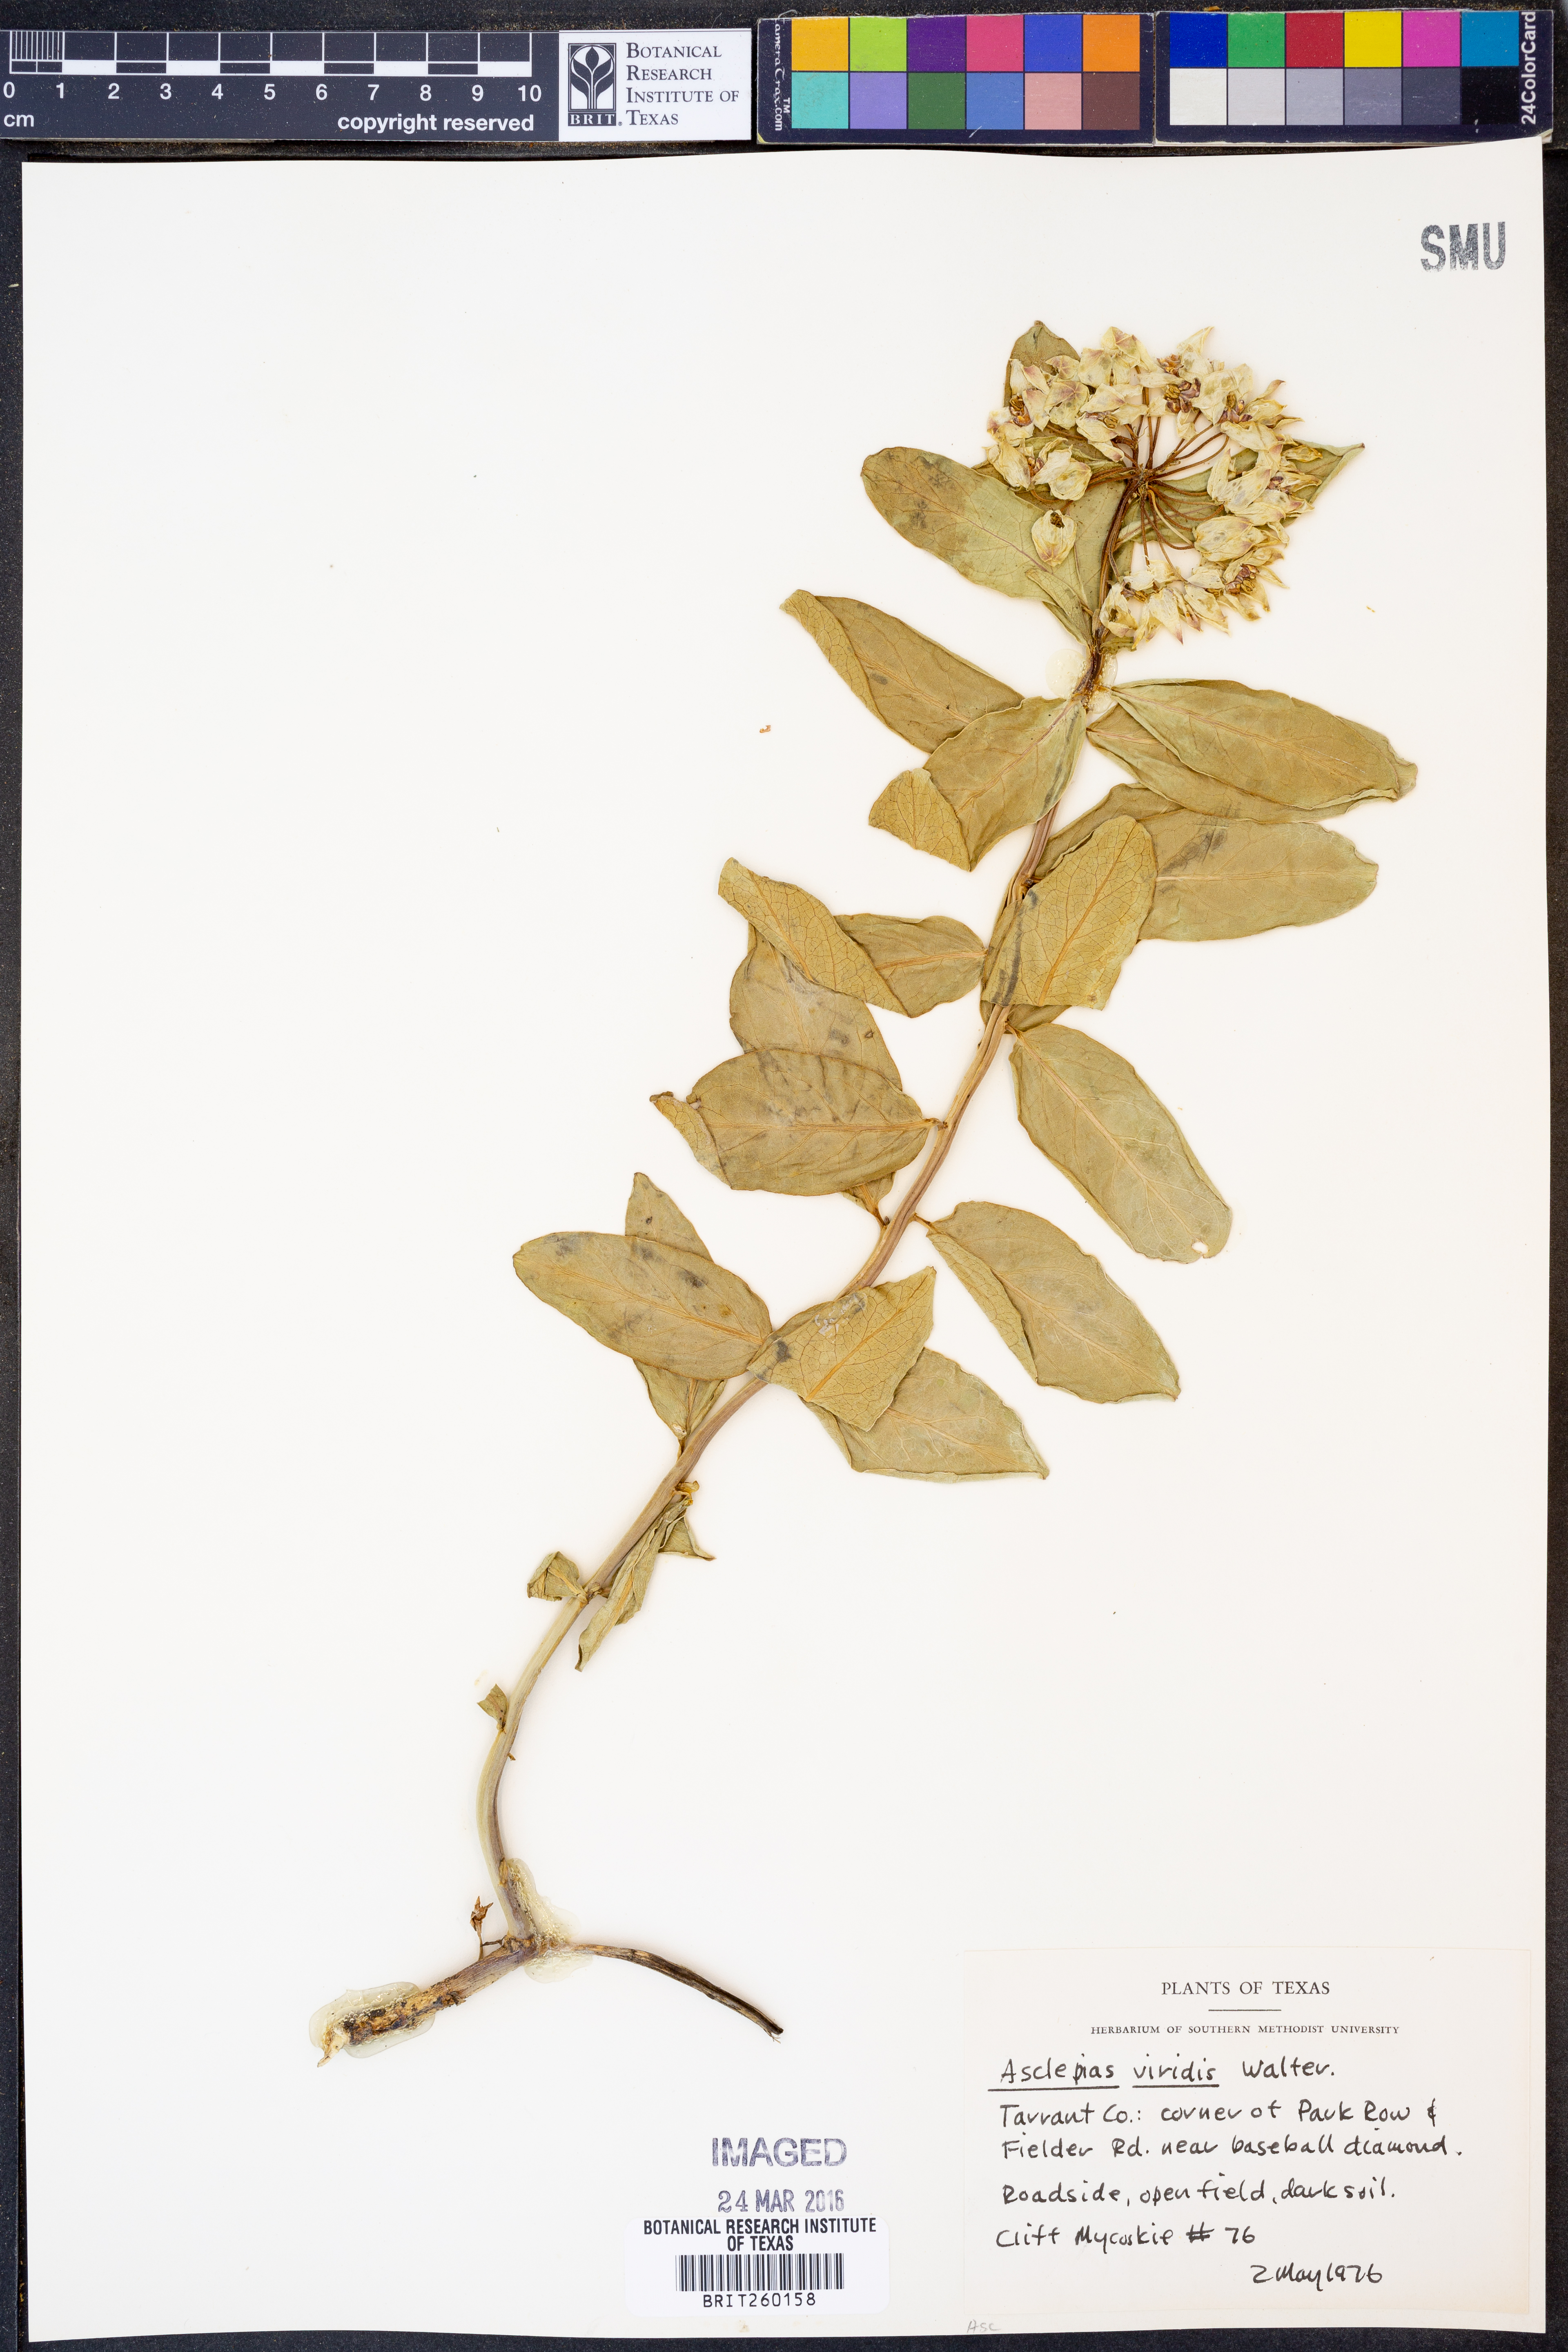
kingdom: Plantae
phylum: Tracheophyta
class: Magnoliopsida
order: Gentianales
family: Apocynaceae
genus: Asclepias
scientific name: Asclepias viridis
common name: Antelope-horns
